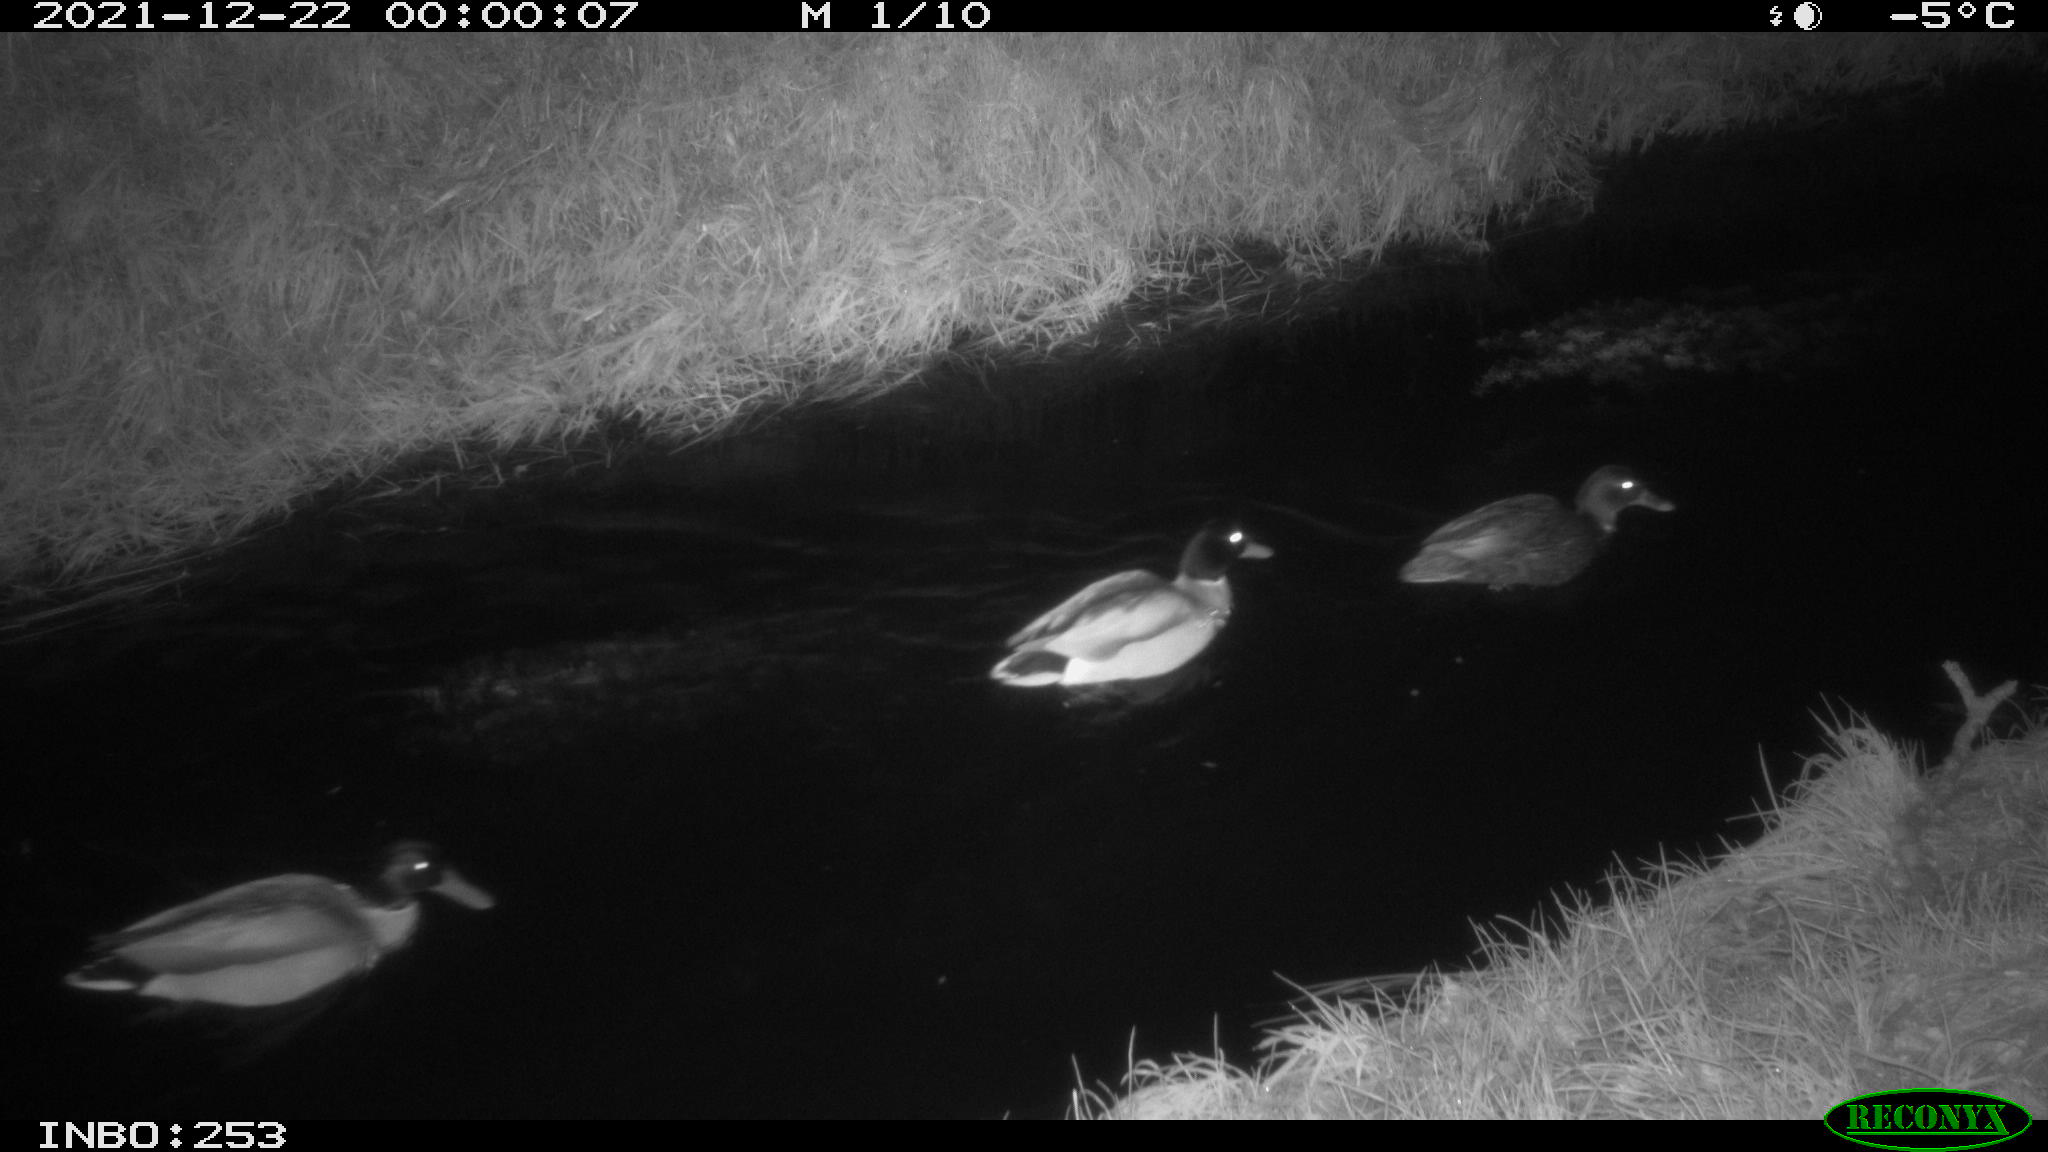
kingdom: Animalia
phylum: Chordata
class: Aves
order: Anseriformes
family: Anatidae
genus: Anas
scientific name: Anas
